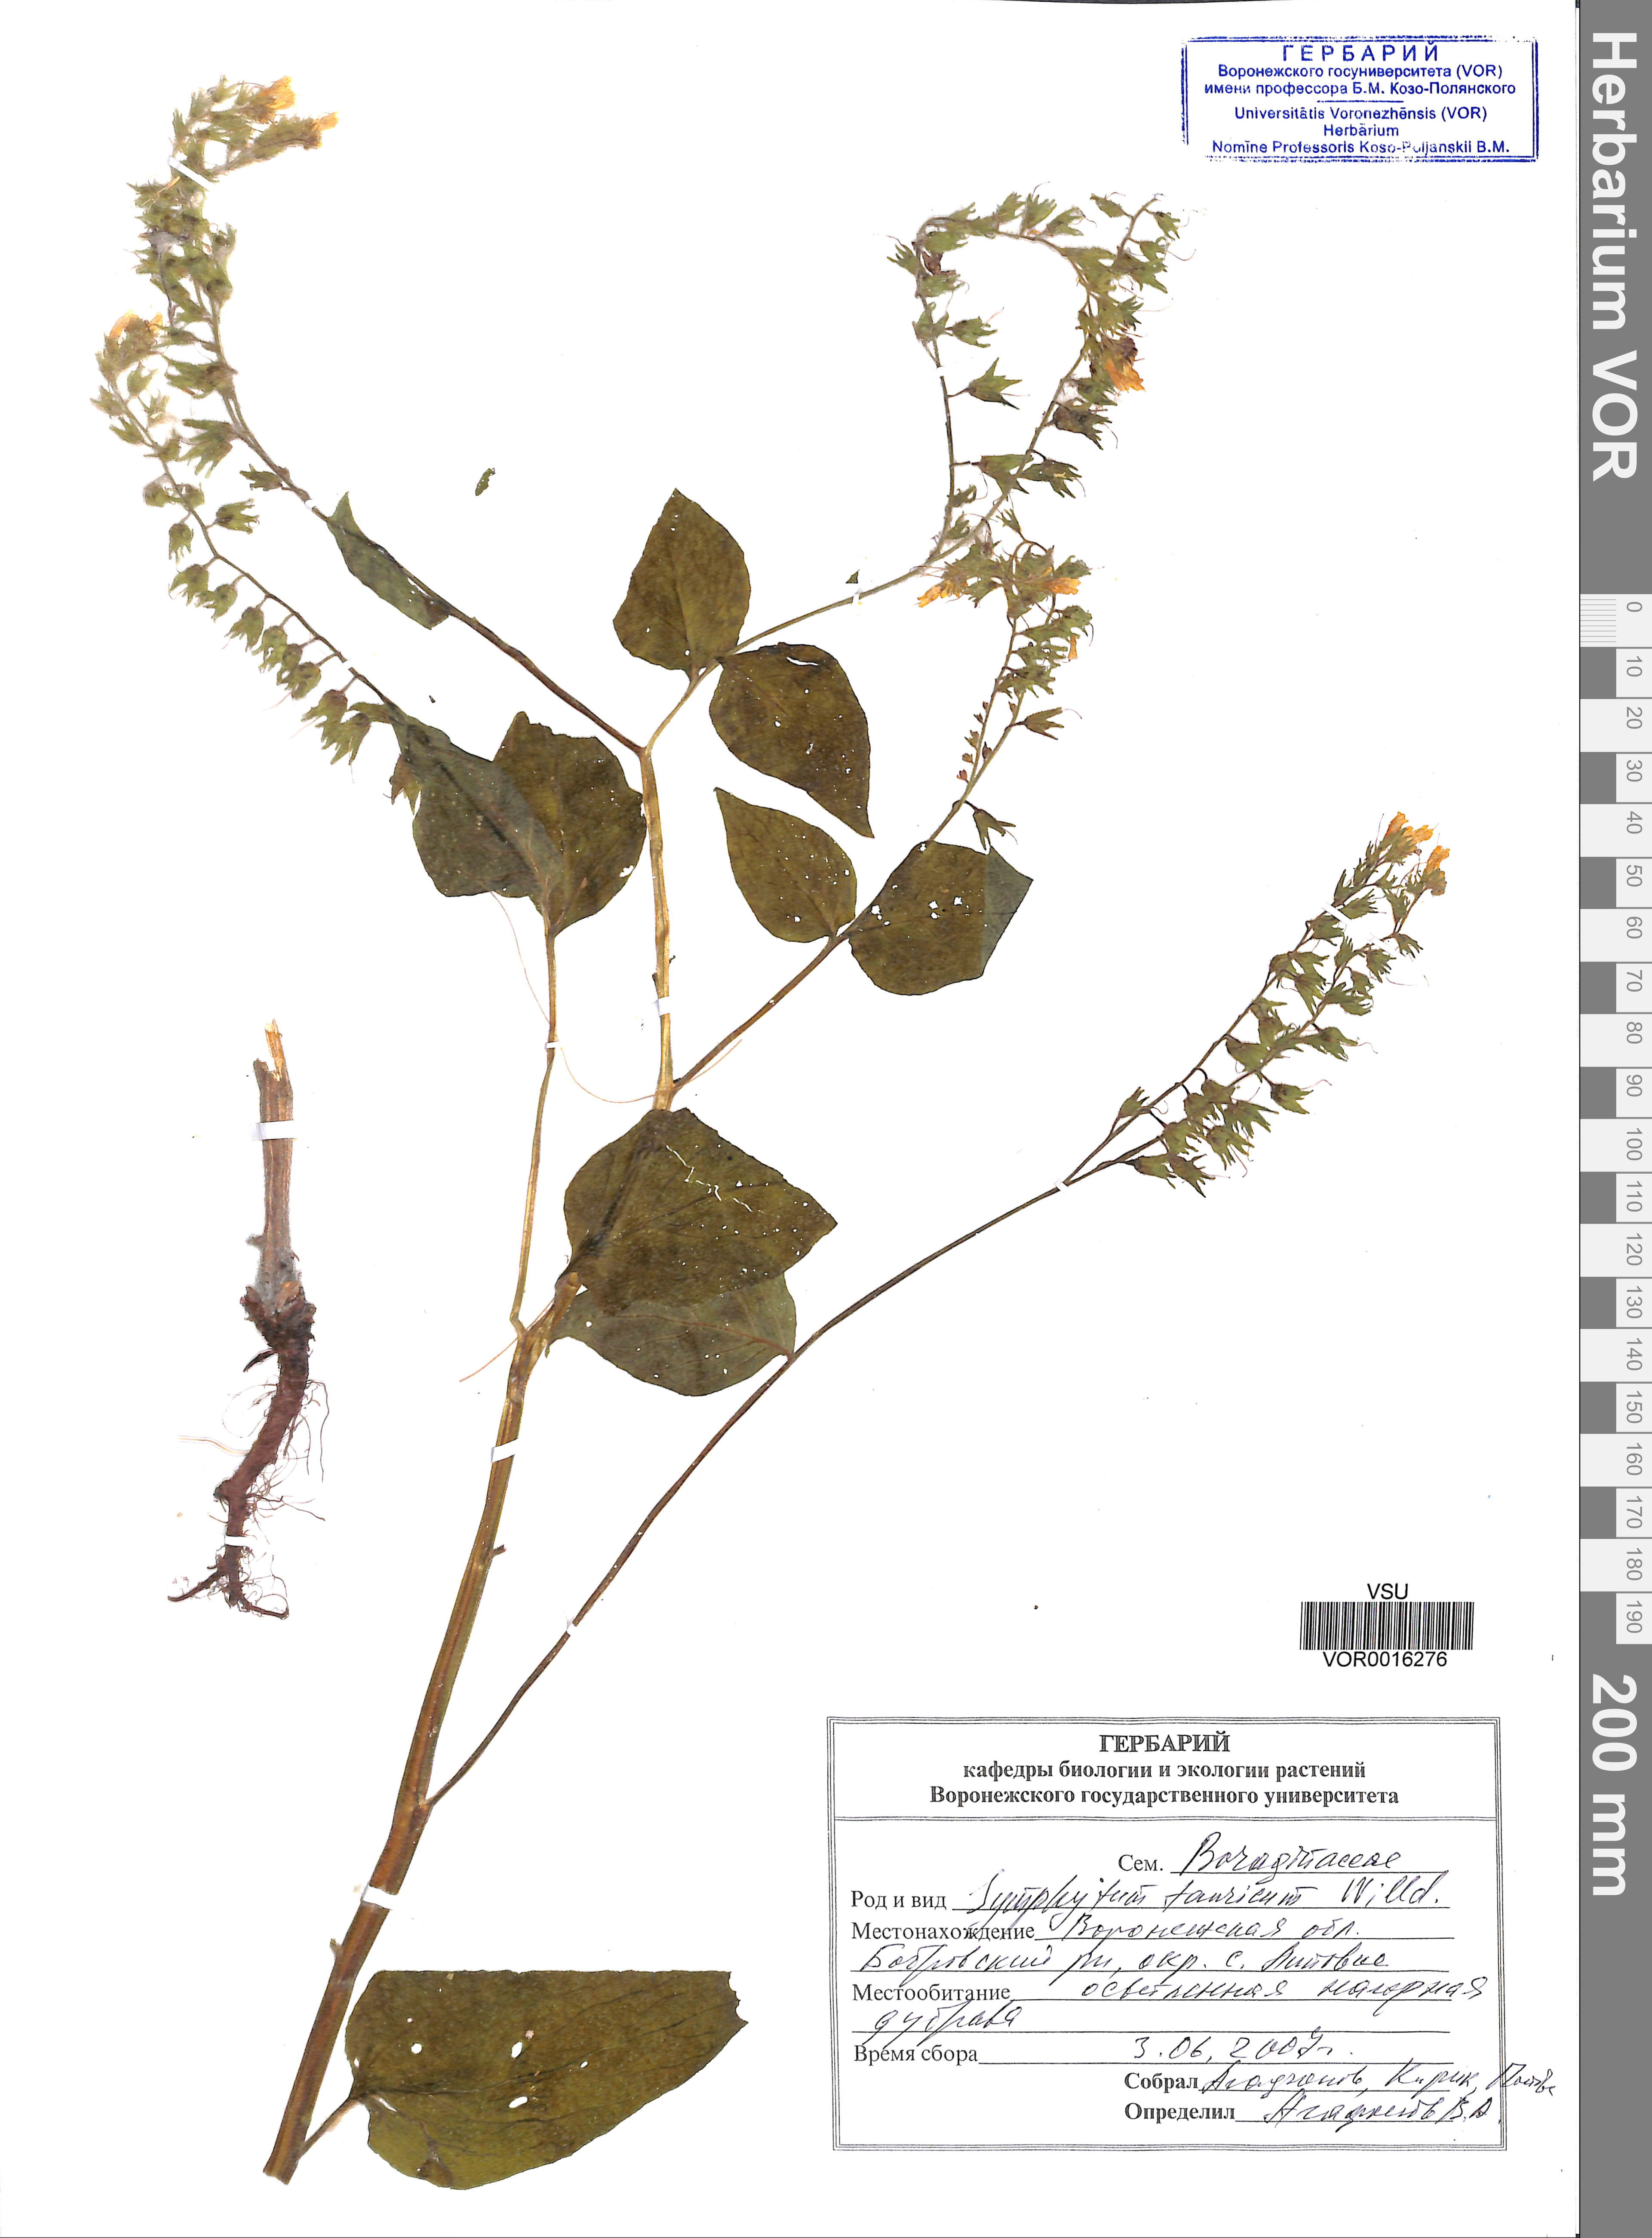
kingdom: Plantae
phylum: Tracheophyta
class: Magnoliopsida
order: Boraginales
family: Boraginaceae
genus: Symphytum
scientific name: Symphytum tauricum
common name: Crimean comfrey
